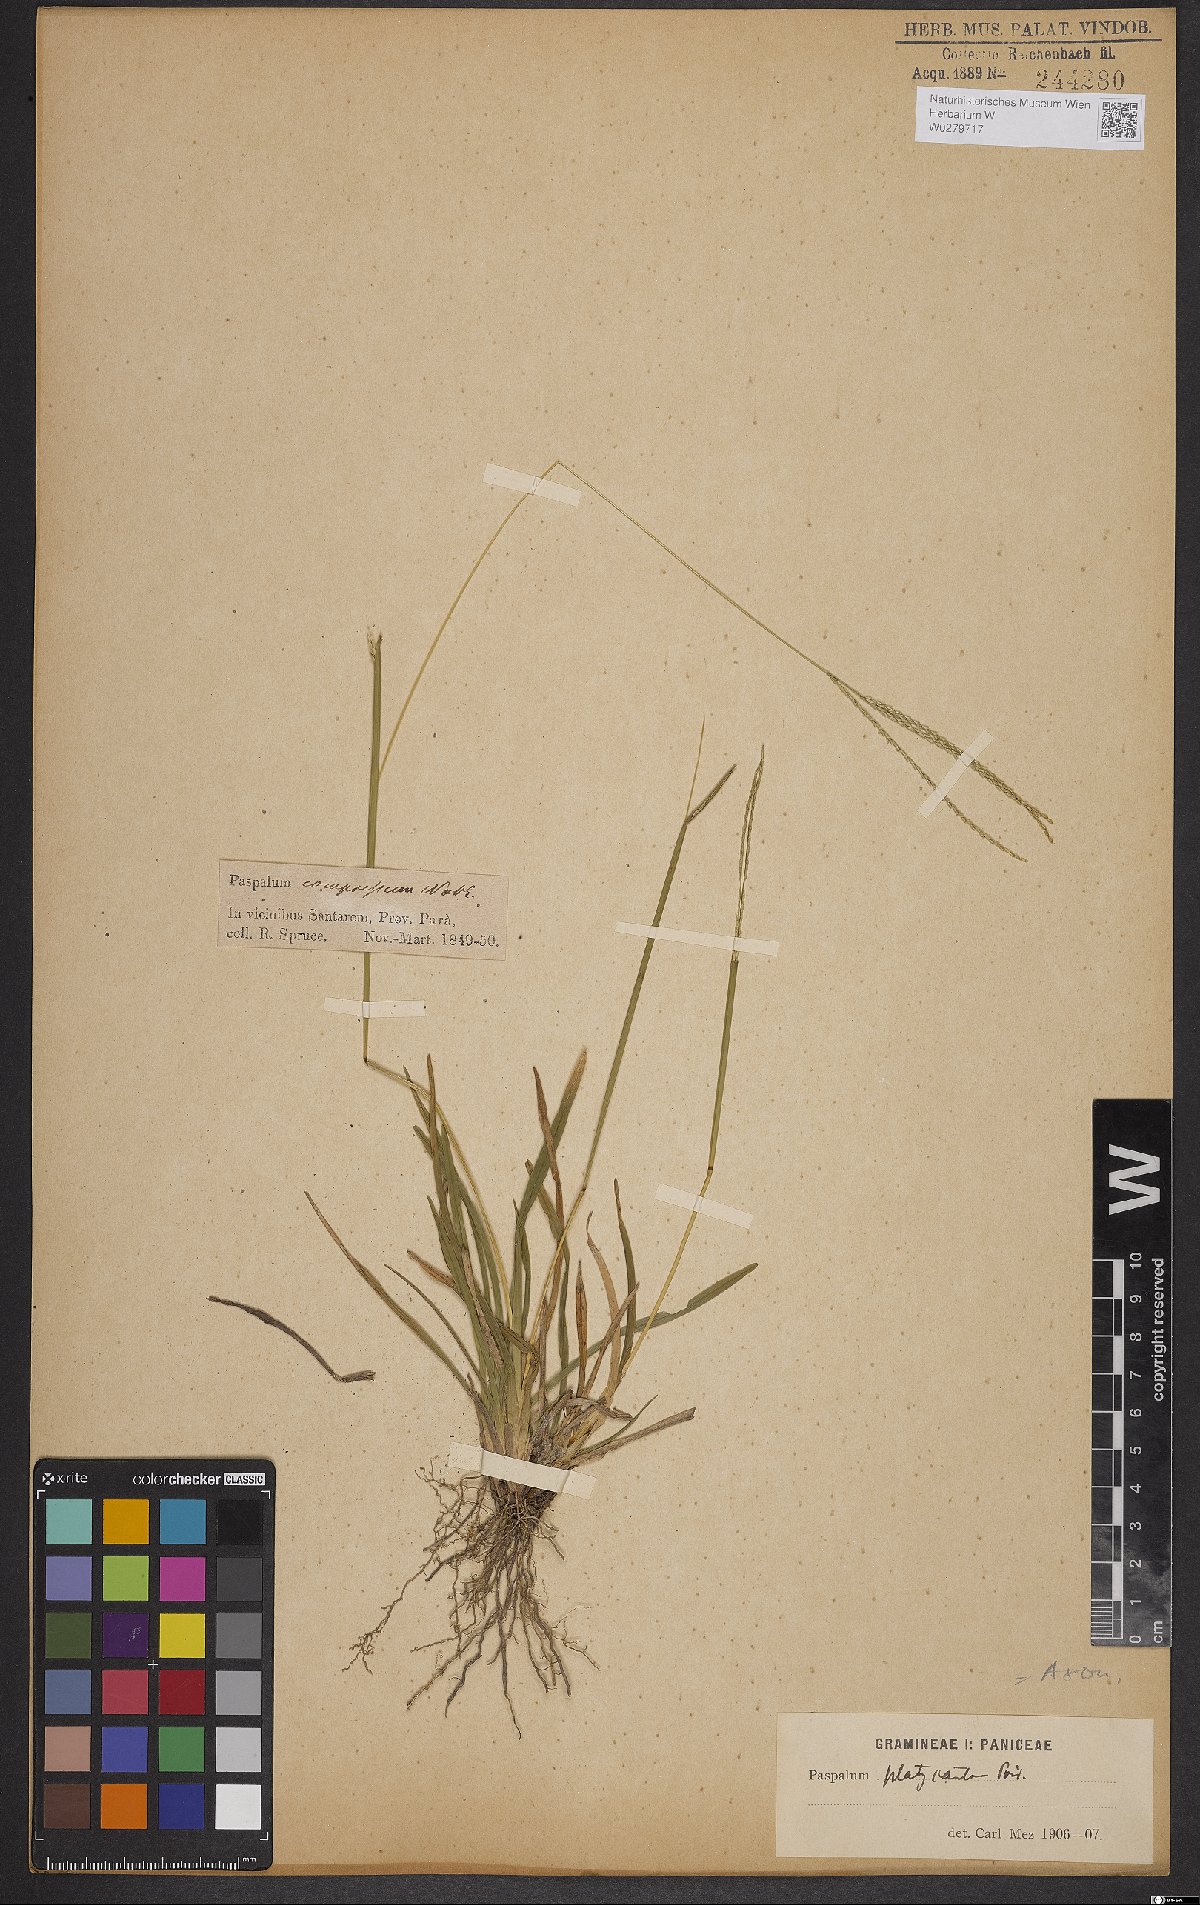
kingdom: Plantae
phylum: Tracheophyta
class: Liliopsida
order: Poales
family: Poaceae
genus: Axonopus
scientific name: Axonopus compressus
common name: American carpet grass
